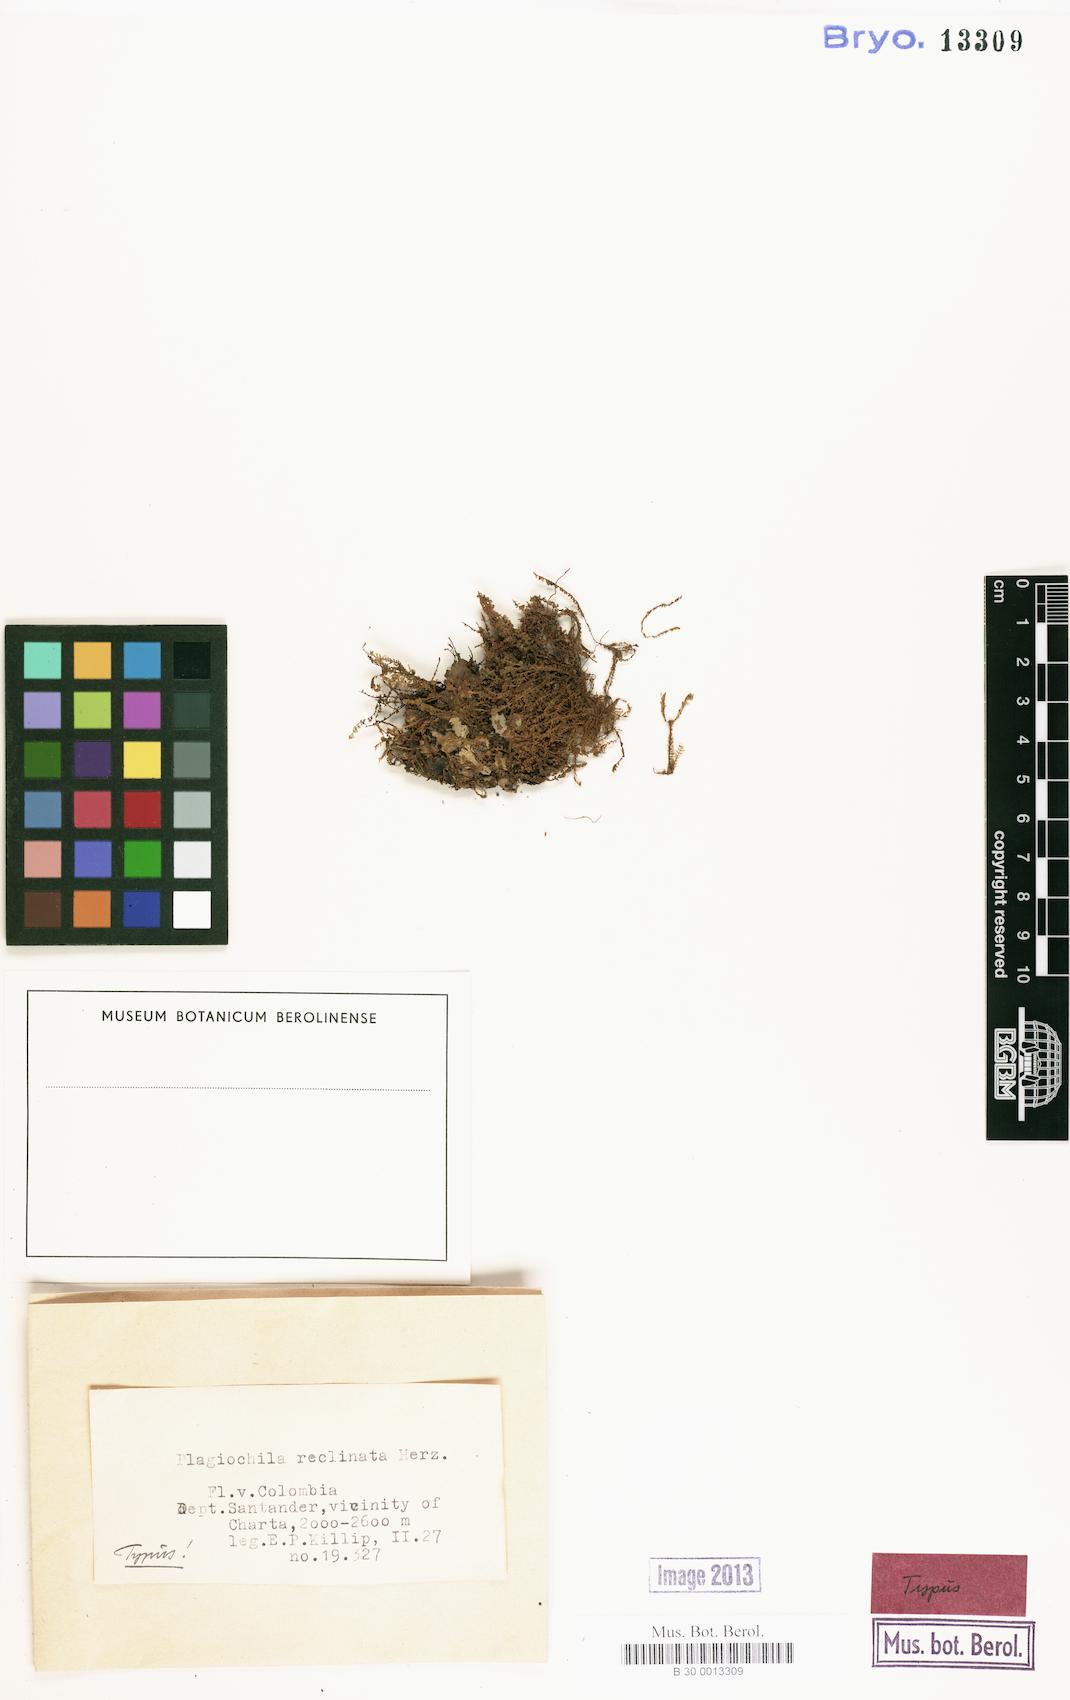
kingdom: Plantae
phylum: Marchantiophyta
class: Jungermanniopsida
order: Jungermanniales
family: Plagiochilaceae
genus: Plagiochila
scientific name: Plagiochila bryhnii
